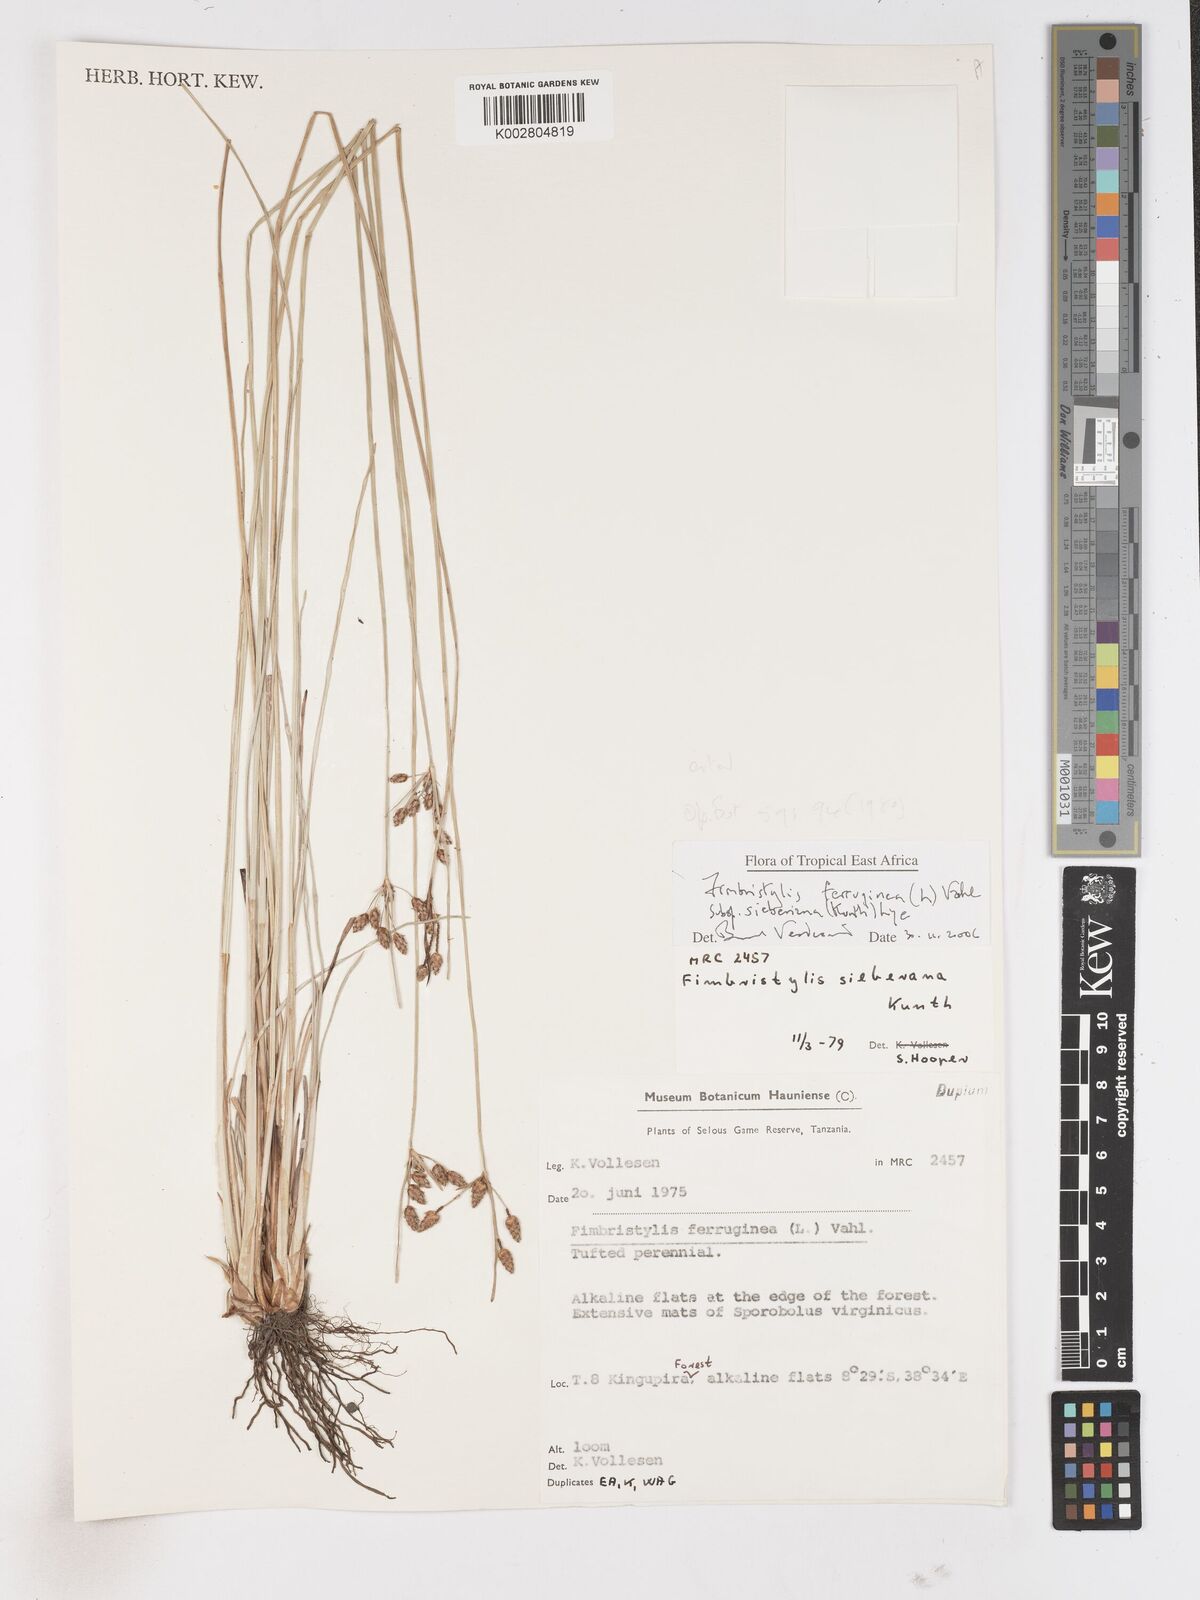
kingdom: Plantae
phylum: Tracheophyta
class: Liliopsida
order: Poales
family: Cyperaceae
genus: Fimbristylis
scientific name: Fimbristylis ferruginea
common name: West indian fimbry
